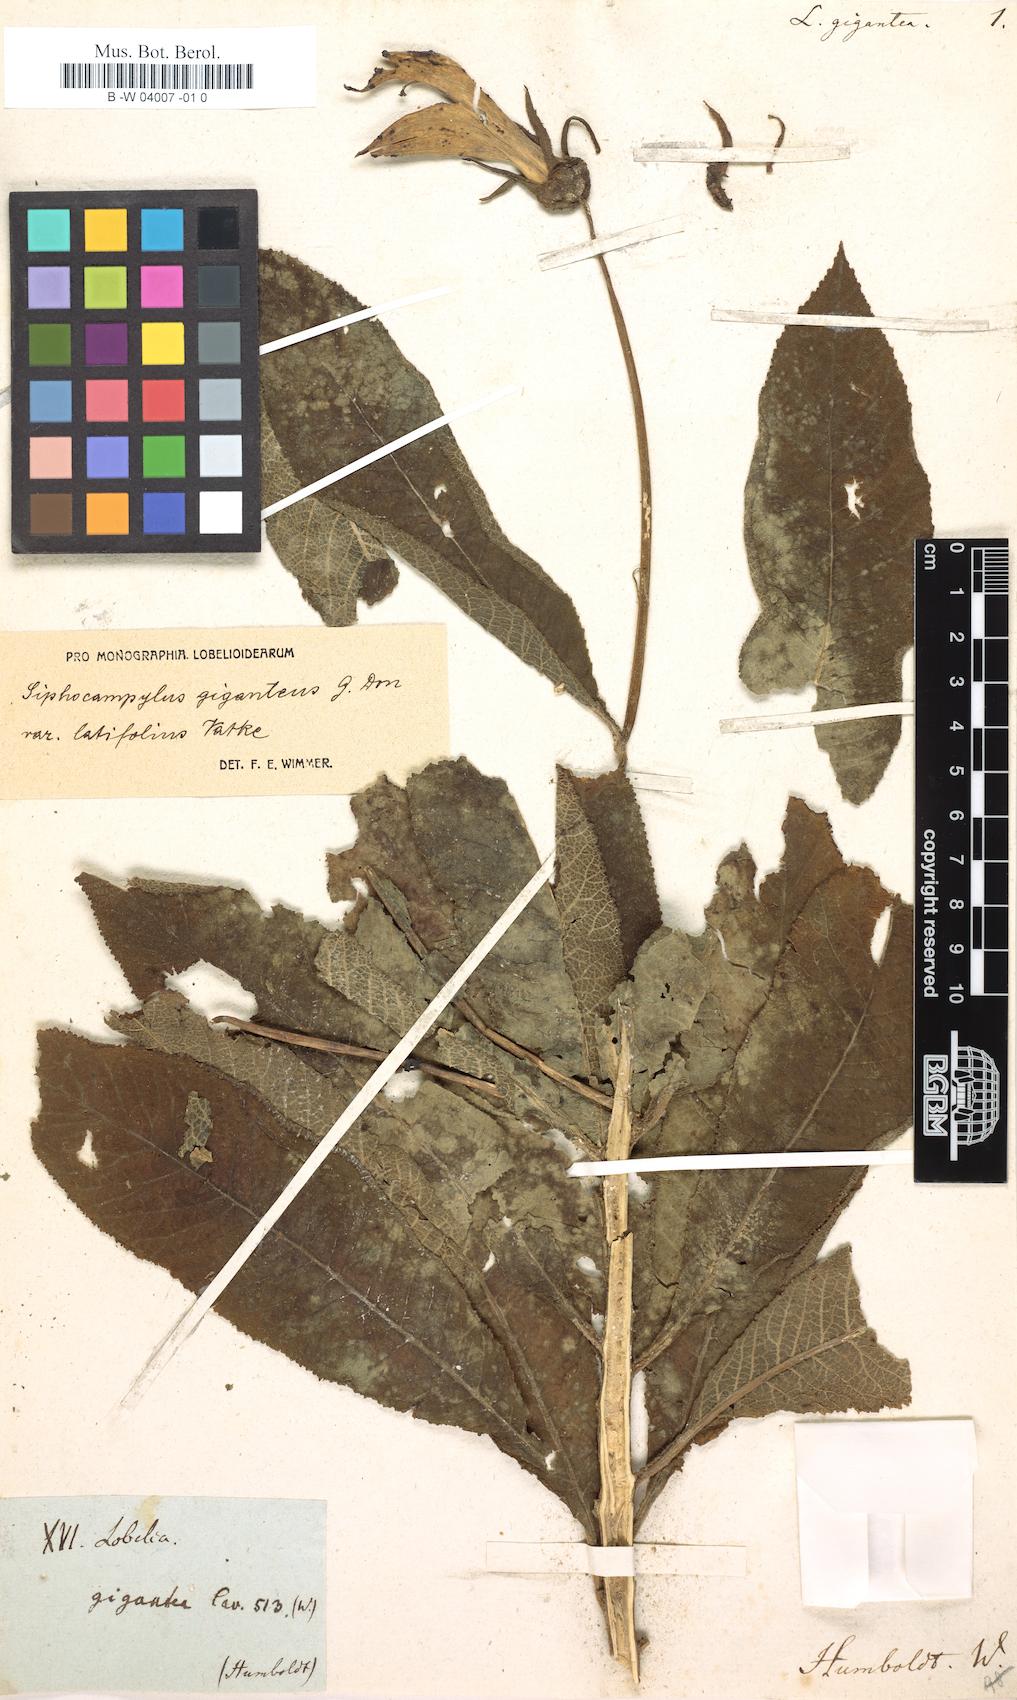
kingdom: Plantae
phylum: Tracheophyta
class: Magnoliopsida
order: Asterales
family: Campanulaceae
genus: Siphocampylus
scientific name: Siphocampylus giganteus
